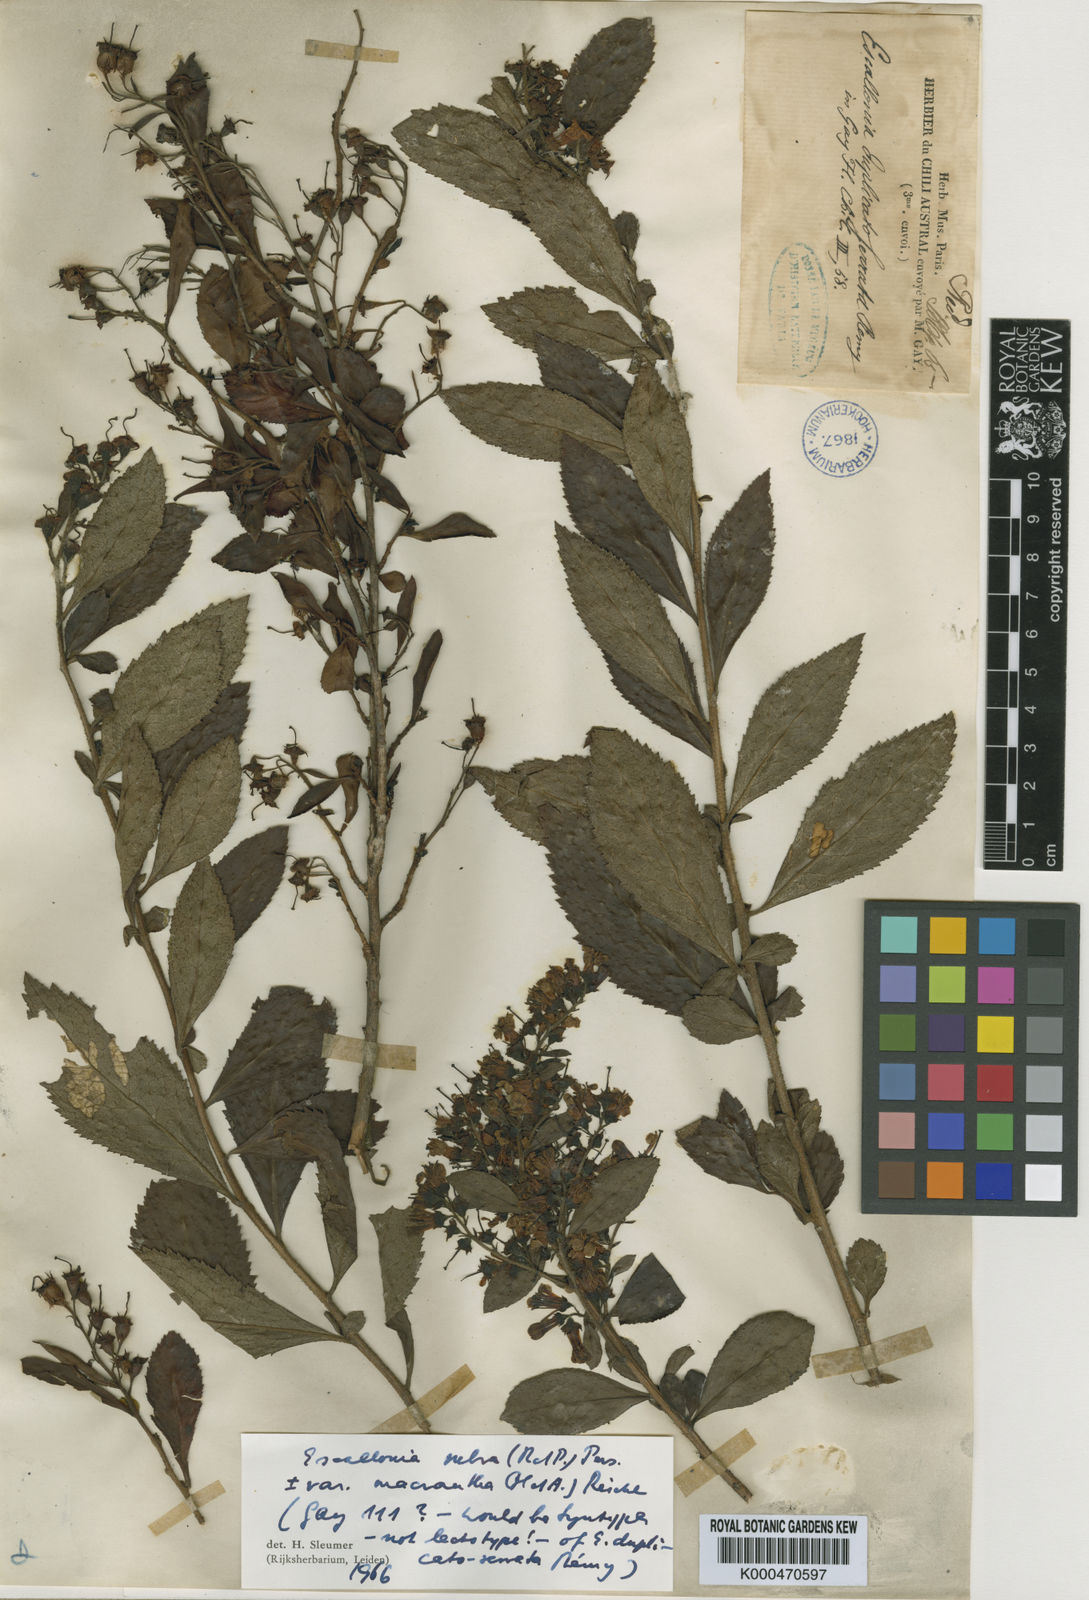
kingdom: Plantae
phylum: Tracheophyta
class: Magnoliopsida
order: Escalloniales
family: Escalloniaceae
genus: Escallonia
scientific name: Escallonia rubra
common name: Redclaws
